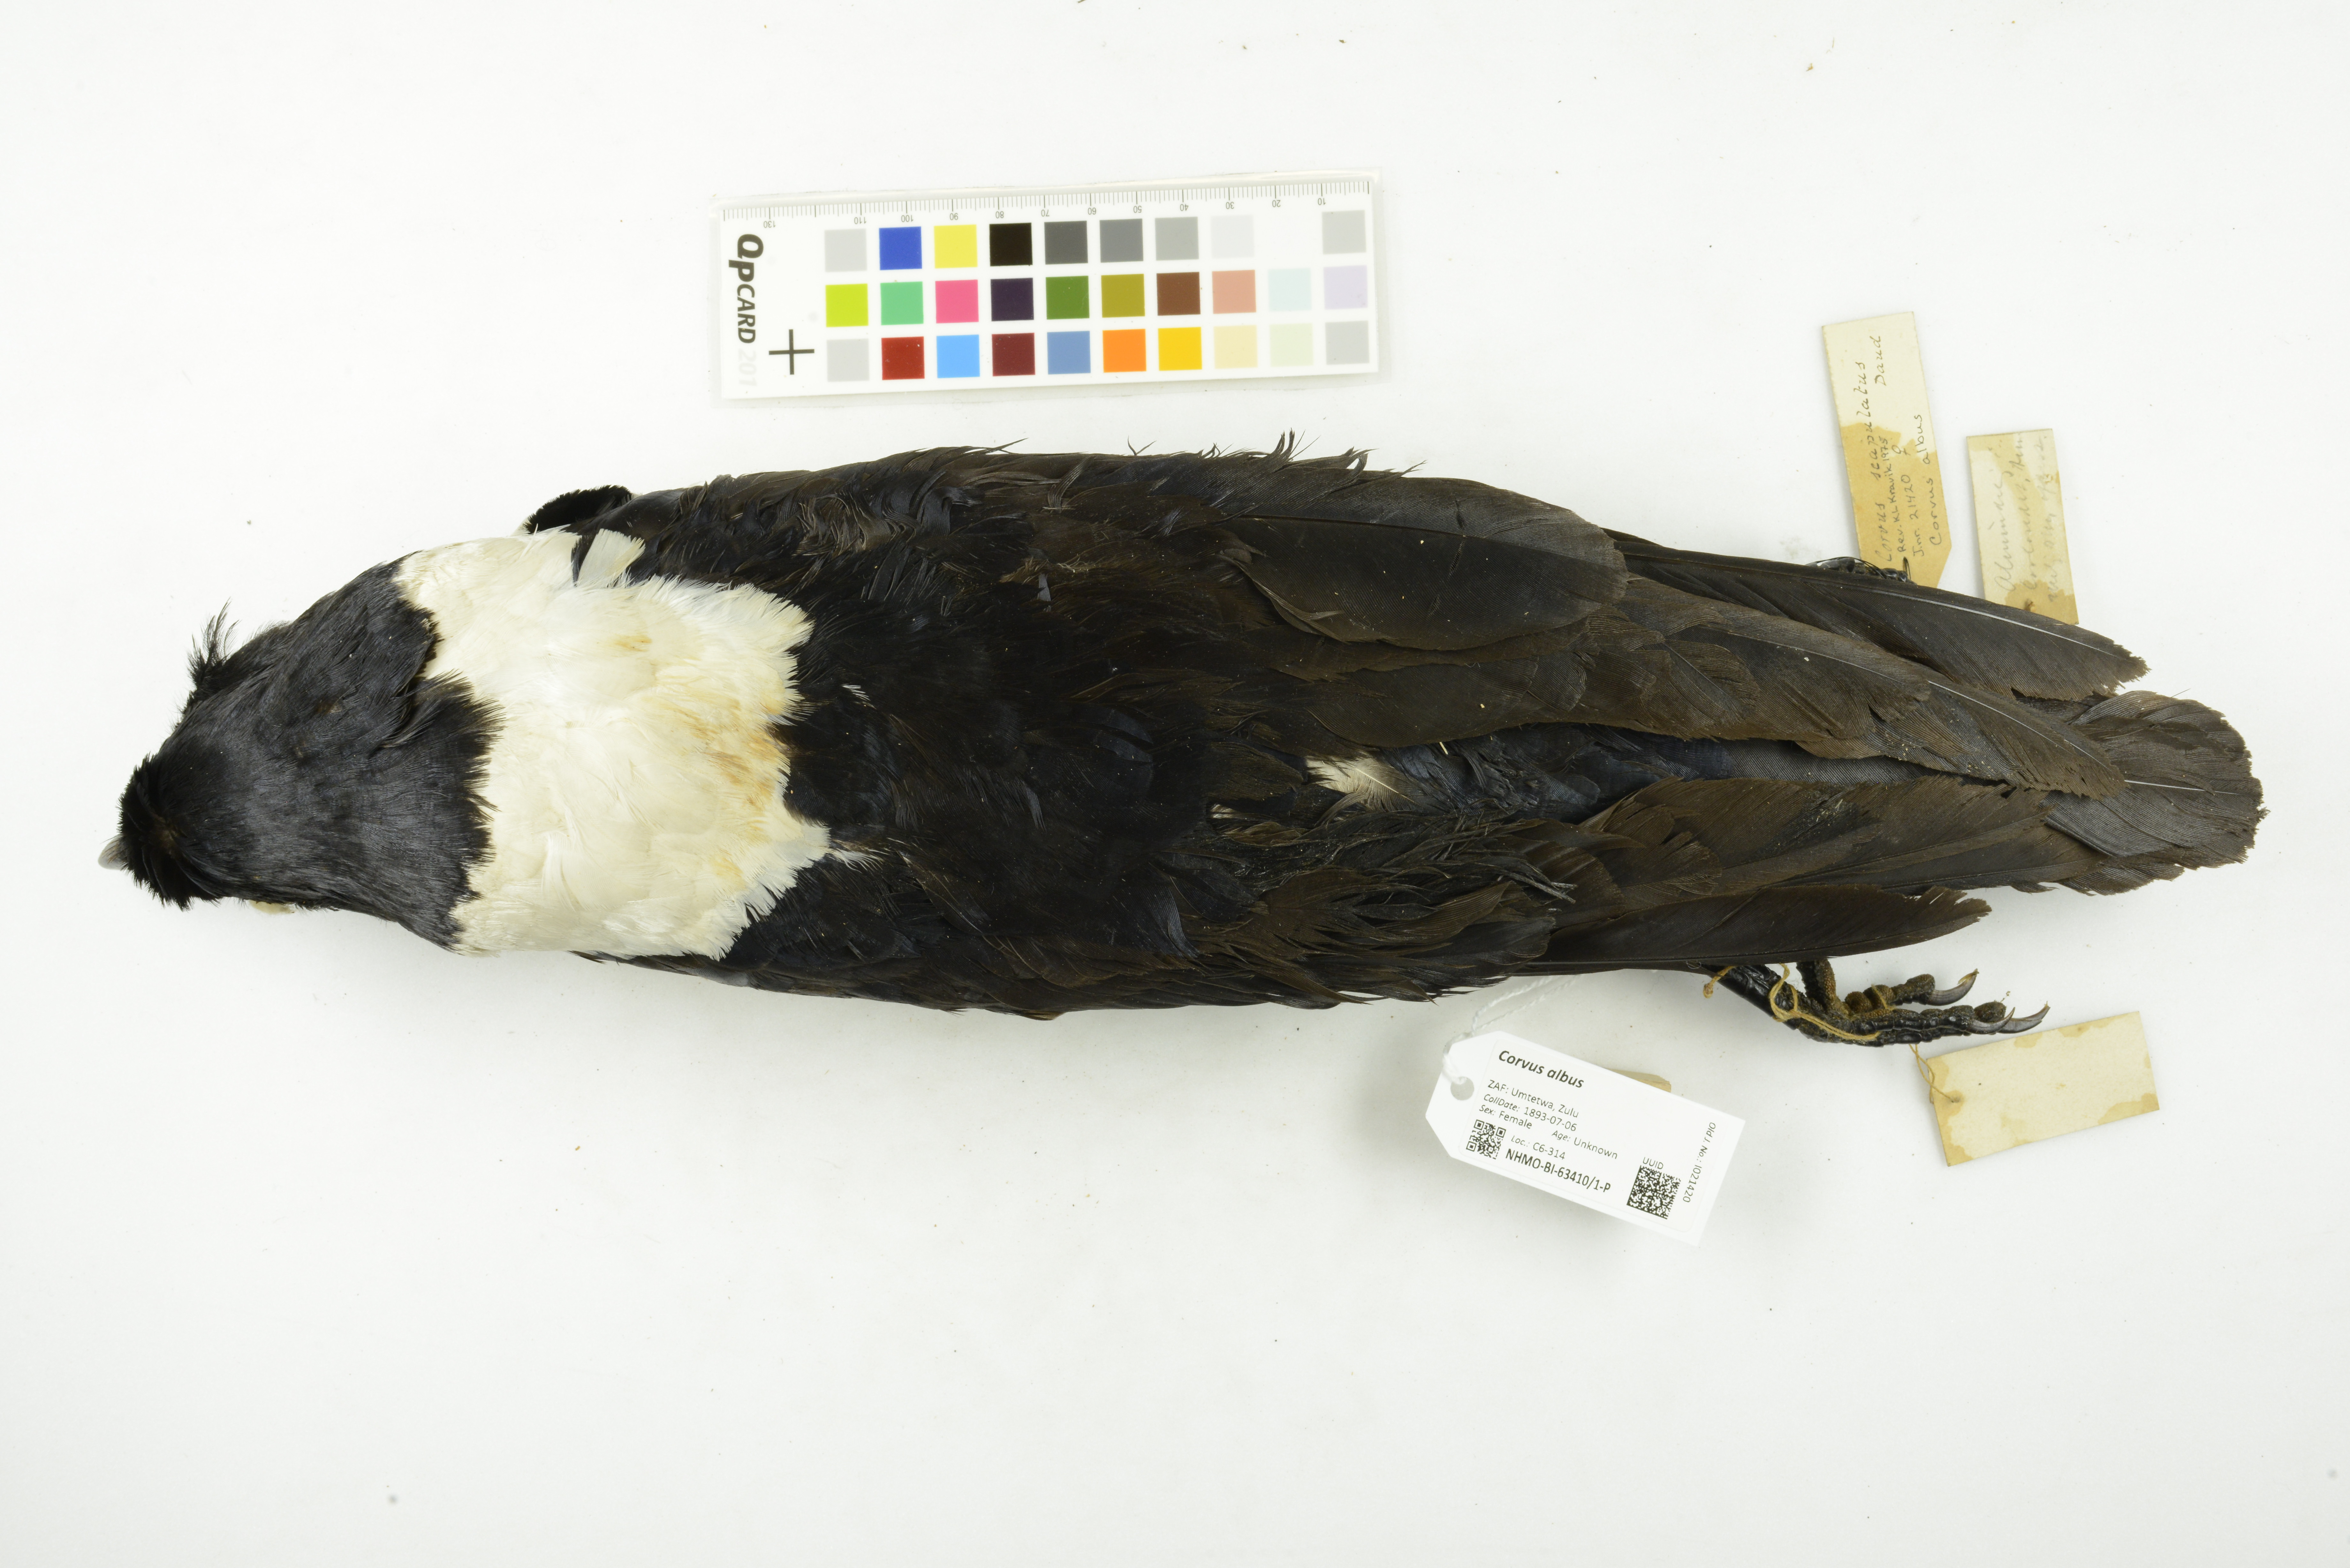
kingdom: Animalia
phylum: Chordata
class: Aves
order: Passeriformes
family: Corvidae
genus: Corvus
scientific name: Corvus albus
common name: Pied crow
